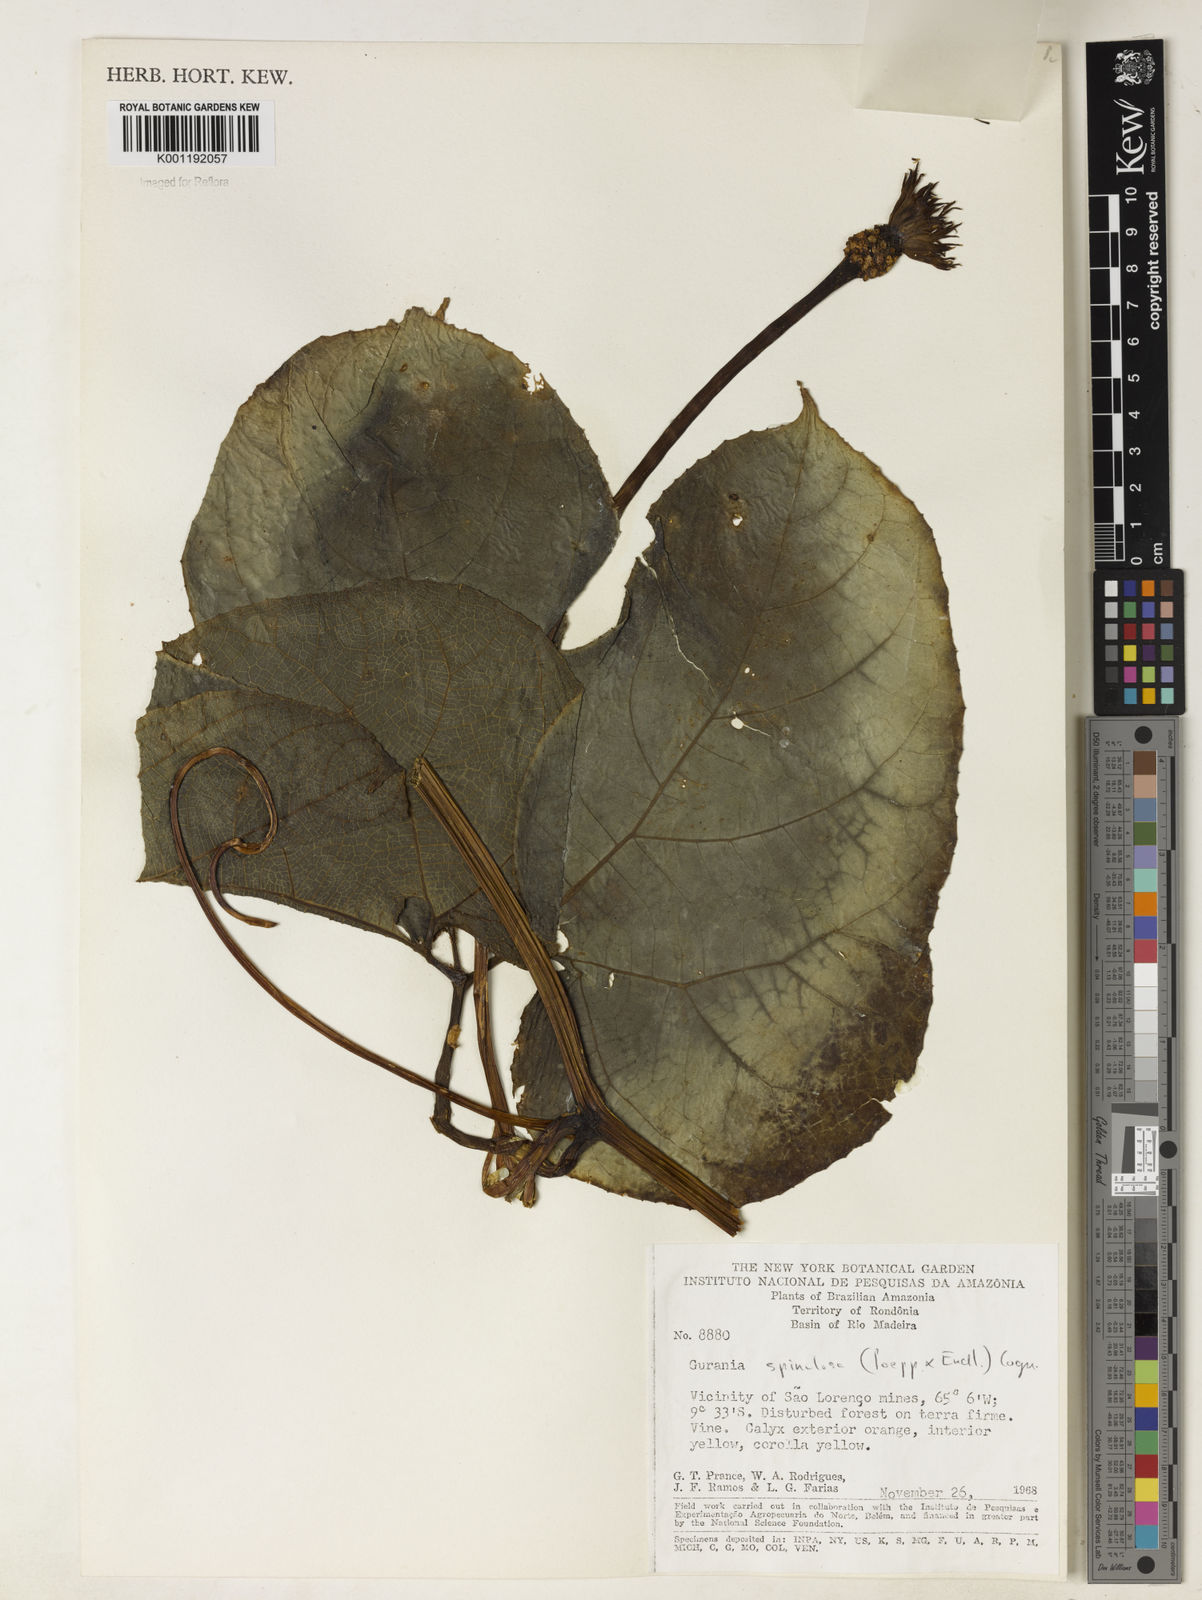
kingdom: Plantae
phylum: Tracheophyta
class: Magnoliopsida
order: Cucurbitales
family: Cucurbitaceae
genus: Gurania
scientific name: Gurania lobata
